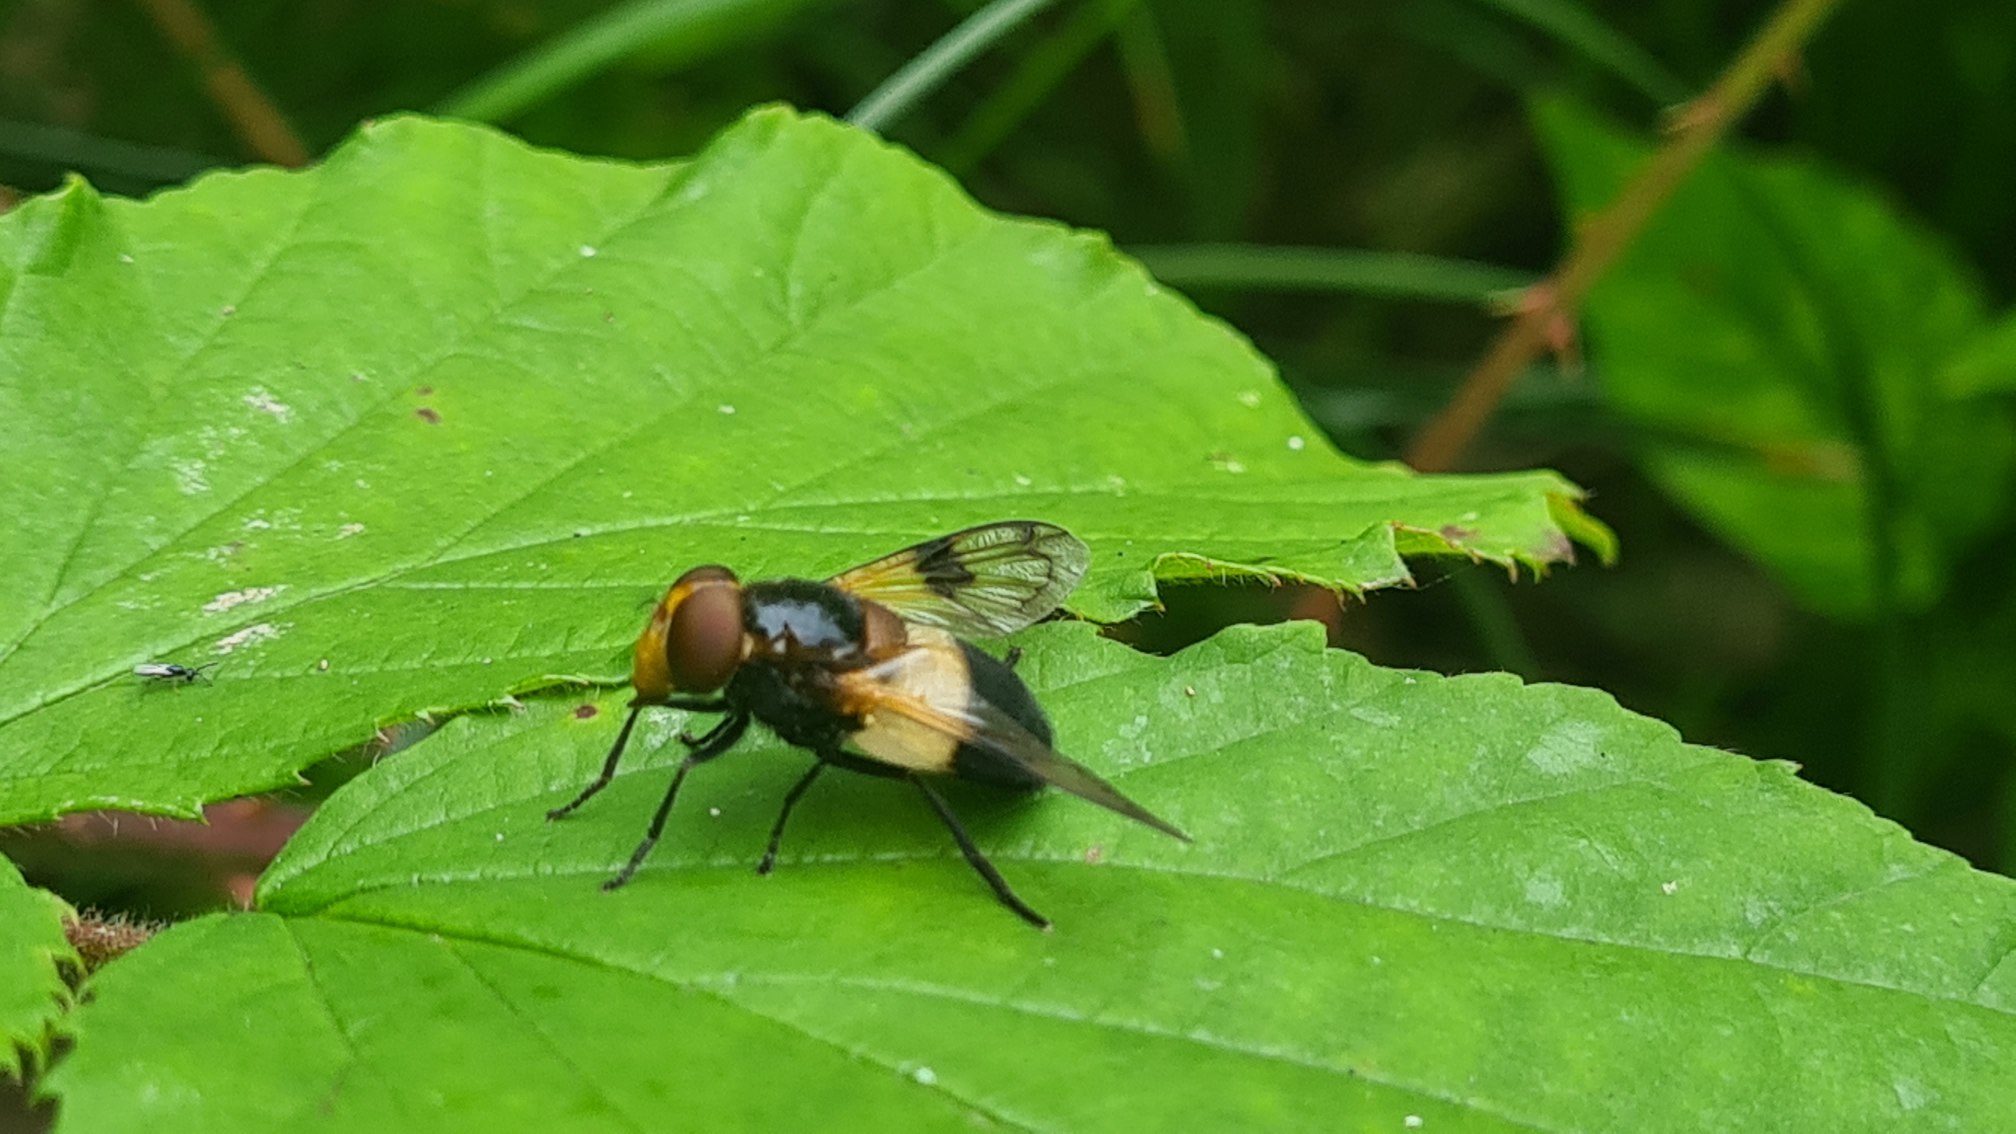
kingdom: Animalia
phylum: Arthropoda
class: Insecta
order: Diptera
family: Syrphidae
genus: Volucella
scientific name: Volucella pellucens
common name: Hvidbåndet humlesvirreflue
